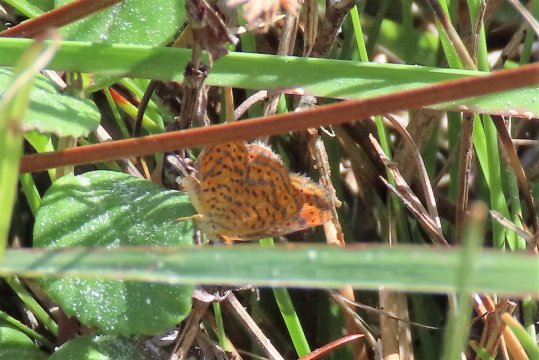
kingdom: Animalia
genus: Calephelis
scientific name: Calephelis virginiensis
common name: Little Metalmark
